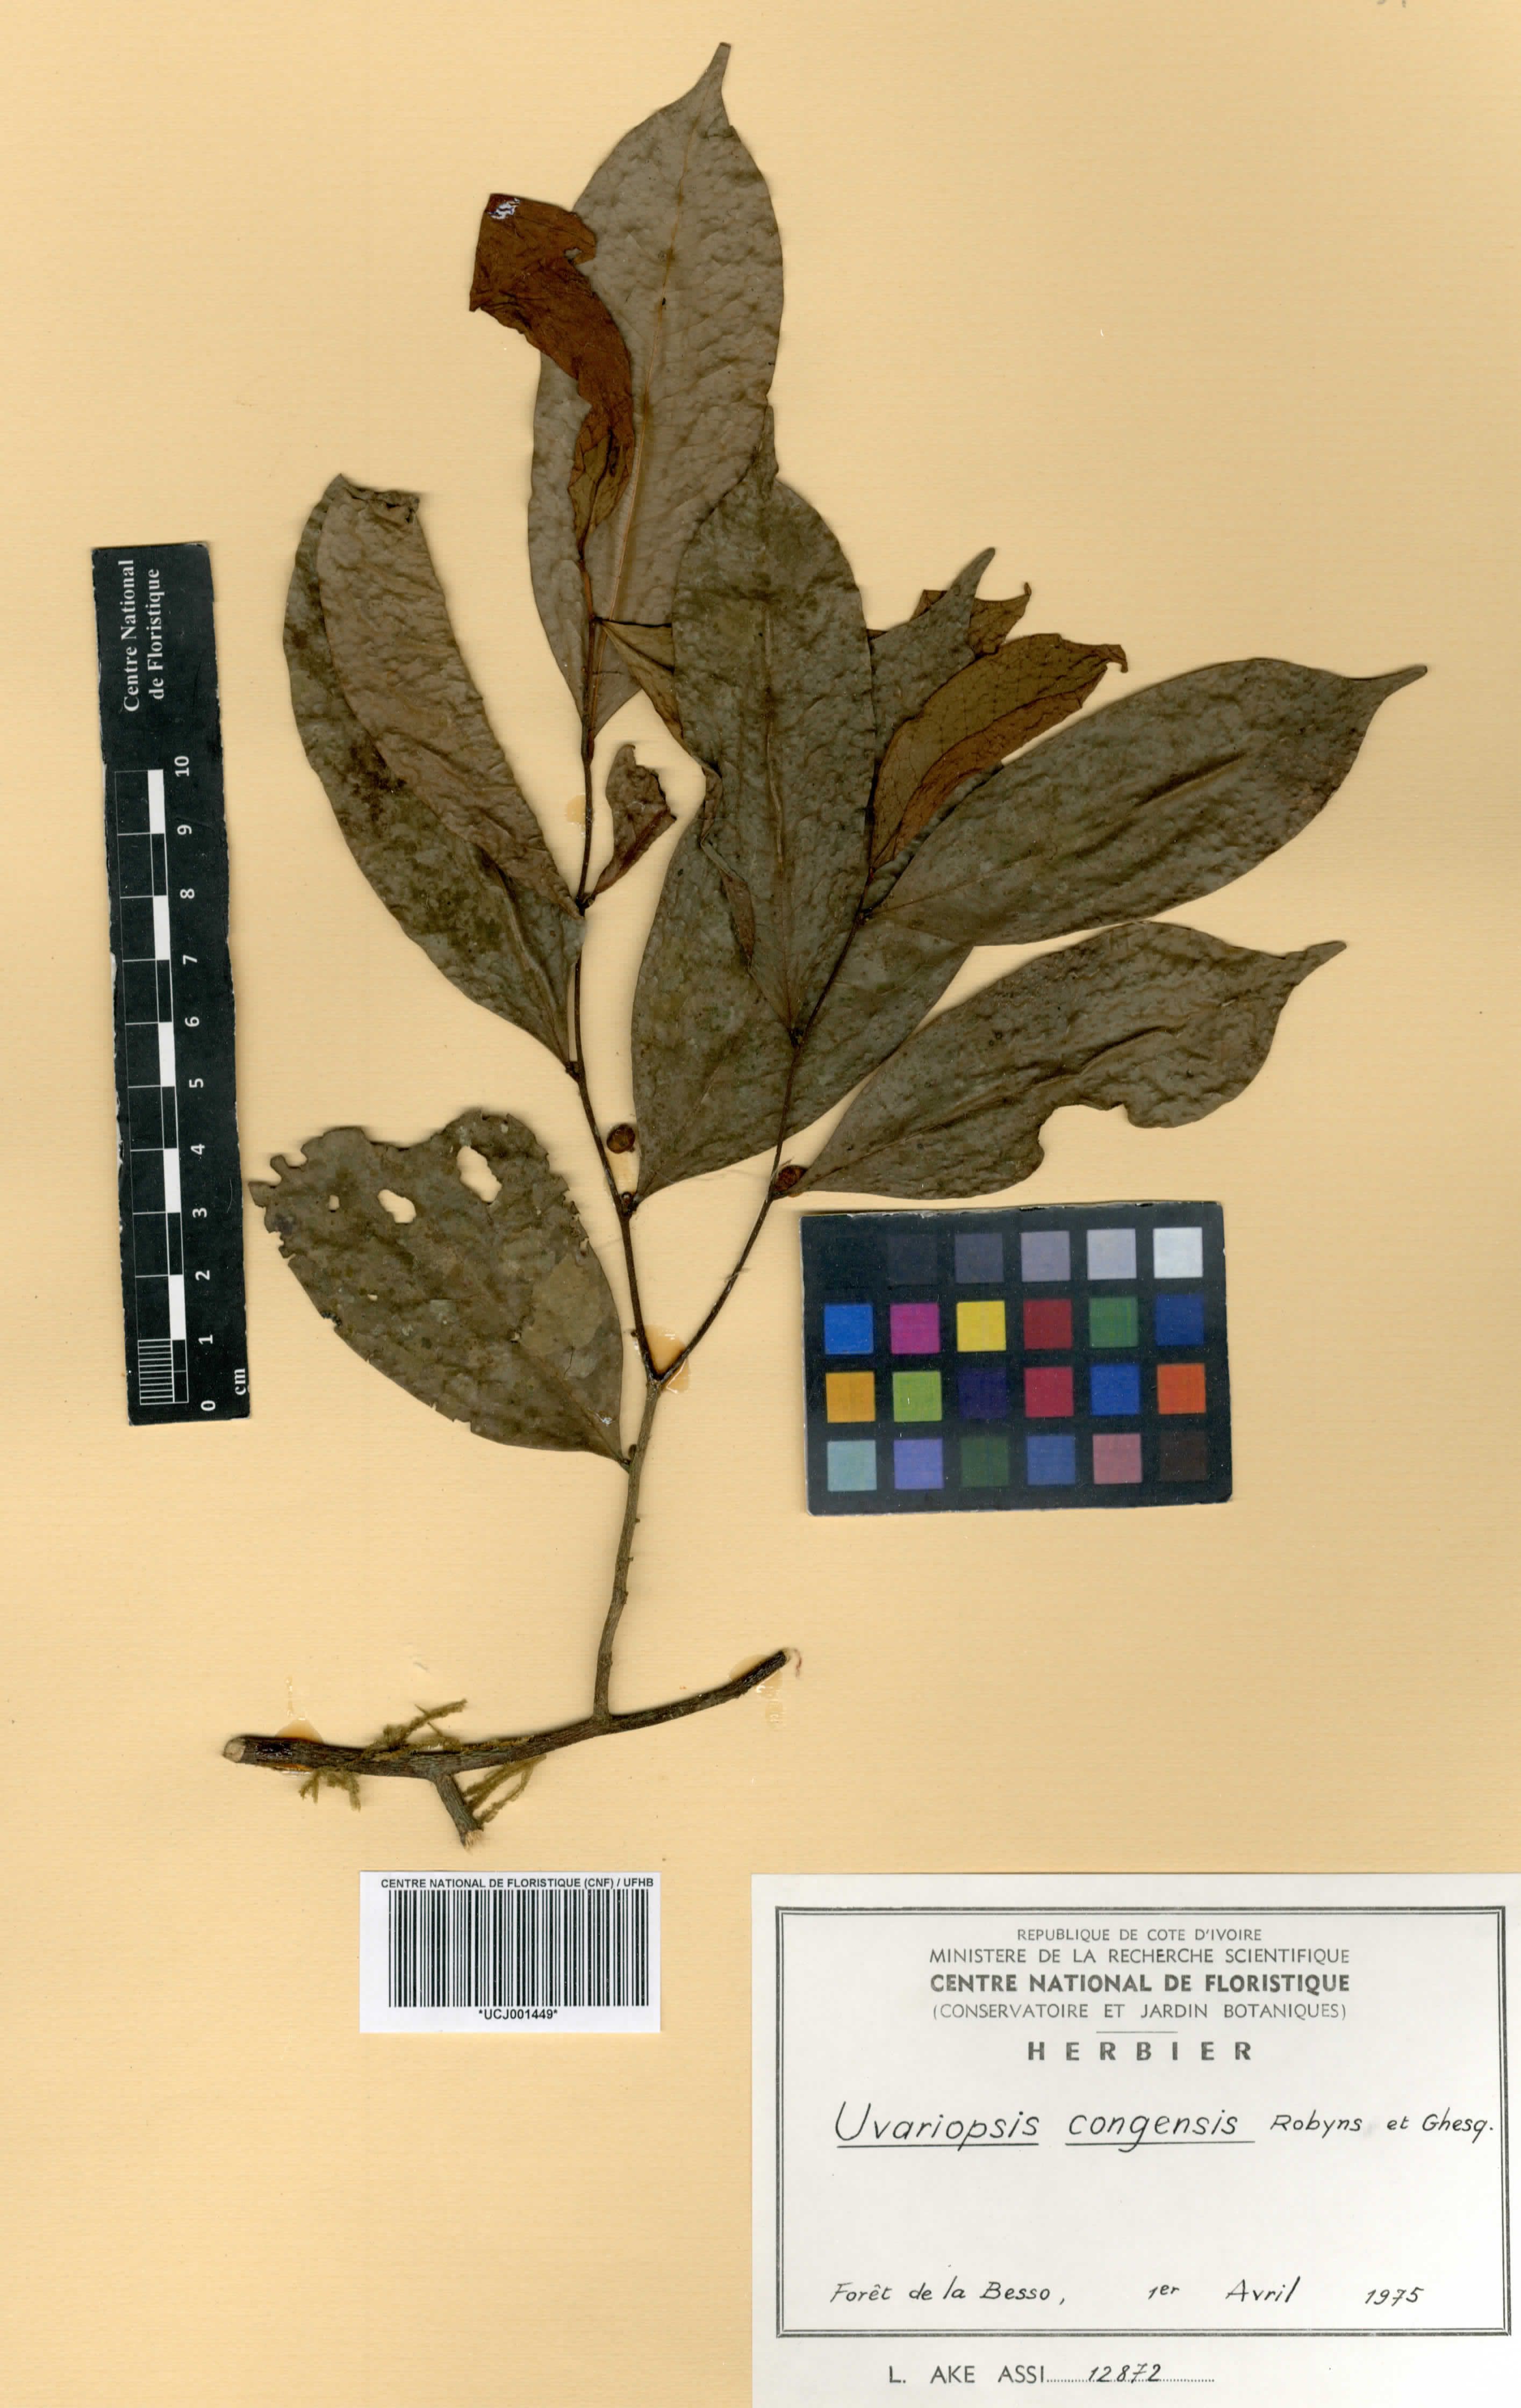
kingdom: Plantae
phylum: Tracheophyta
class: Magnoliopsida
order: Magnoliales
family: Annonaceae
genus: Uvariopsis
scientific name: Uvariopsis congensis
